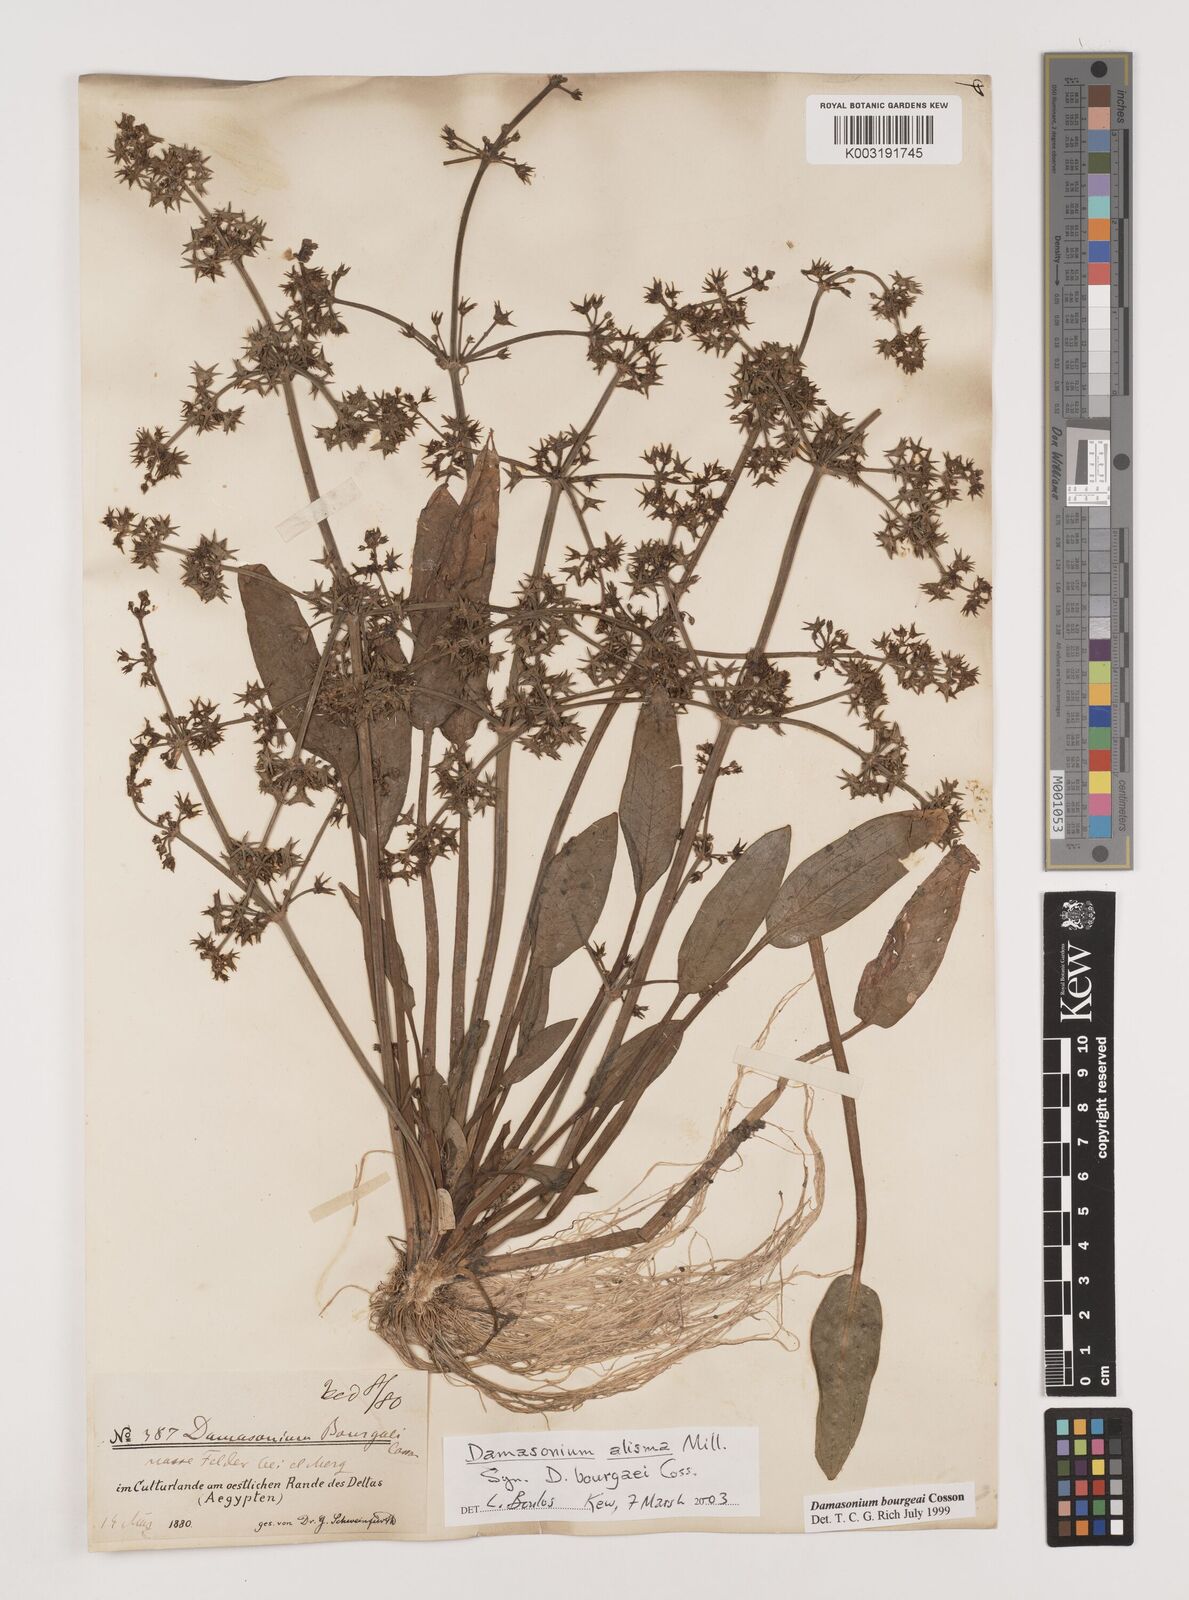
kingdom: Plantae
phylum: Tracheophyta
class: Liliopsida
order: Alismatales
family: Alismataceae
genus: Damasonium
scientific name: Damasonium alisma
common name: Starfruit
